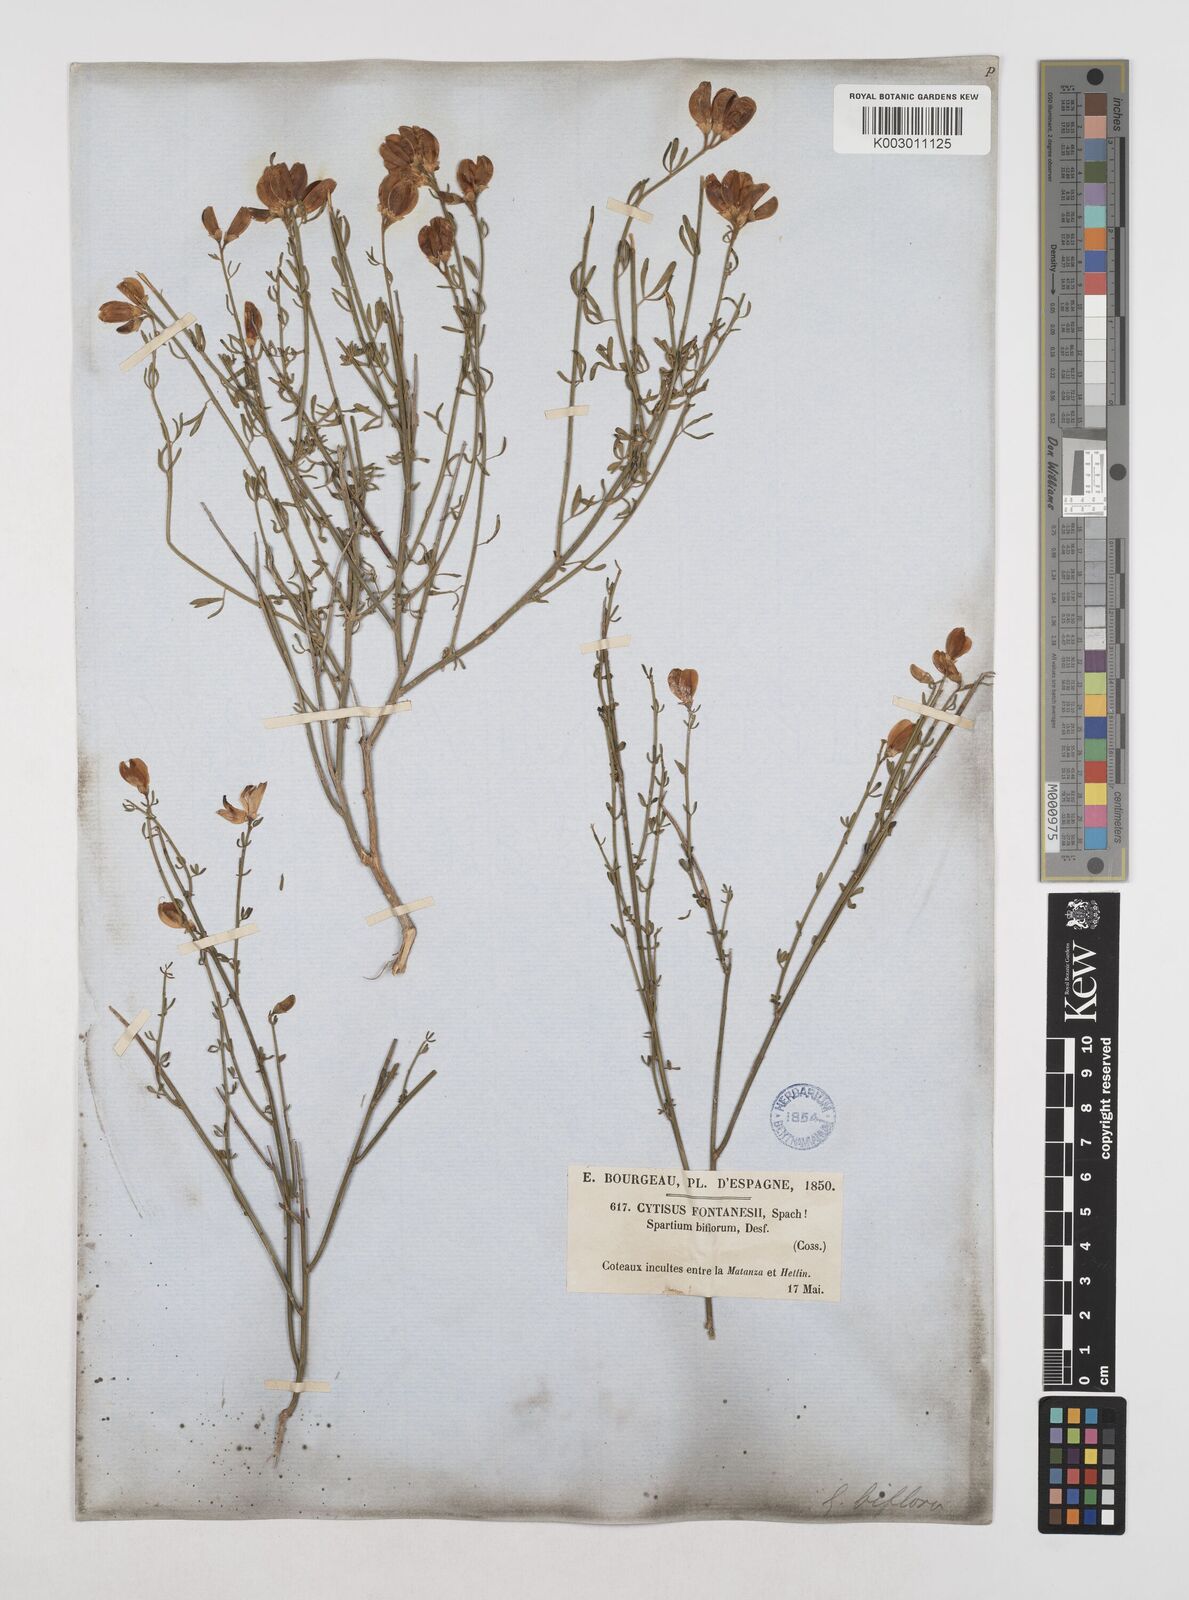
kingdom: Plantae
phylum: Tracheophyta
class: Magnoliopsida
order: Fabales
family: Fabaceae
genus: Cytisus
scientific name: Cytisus fontanesii
